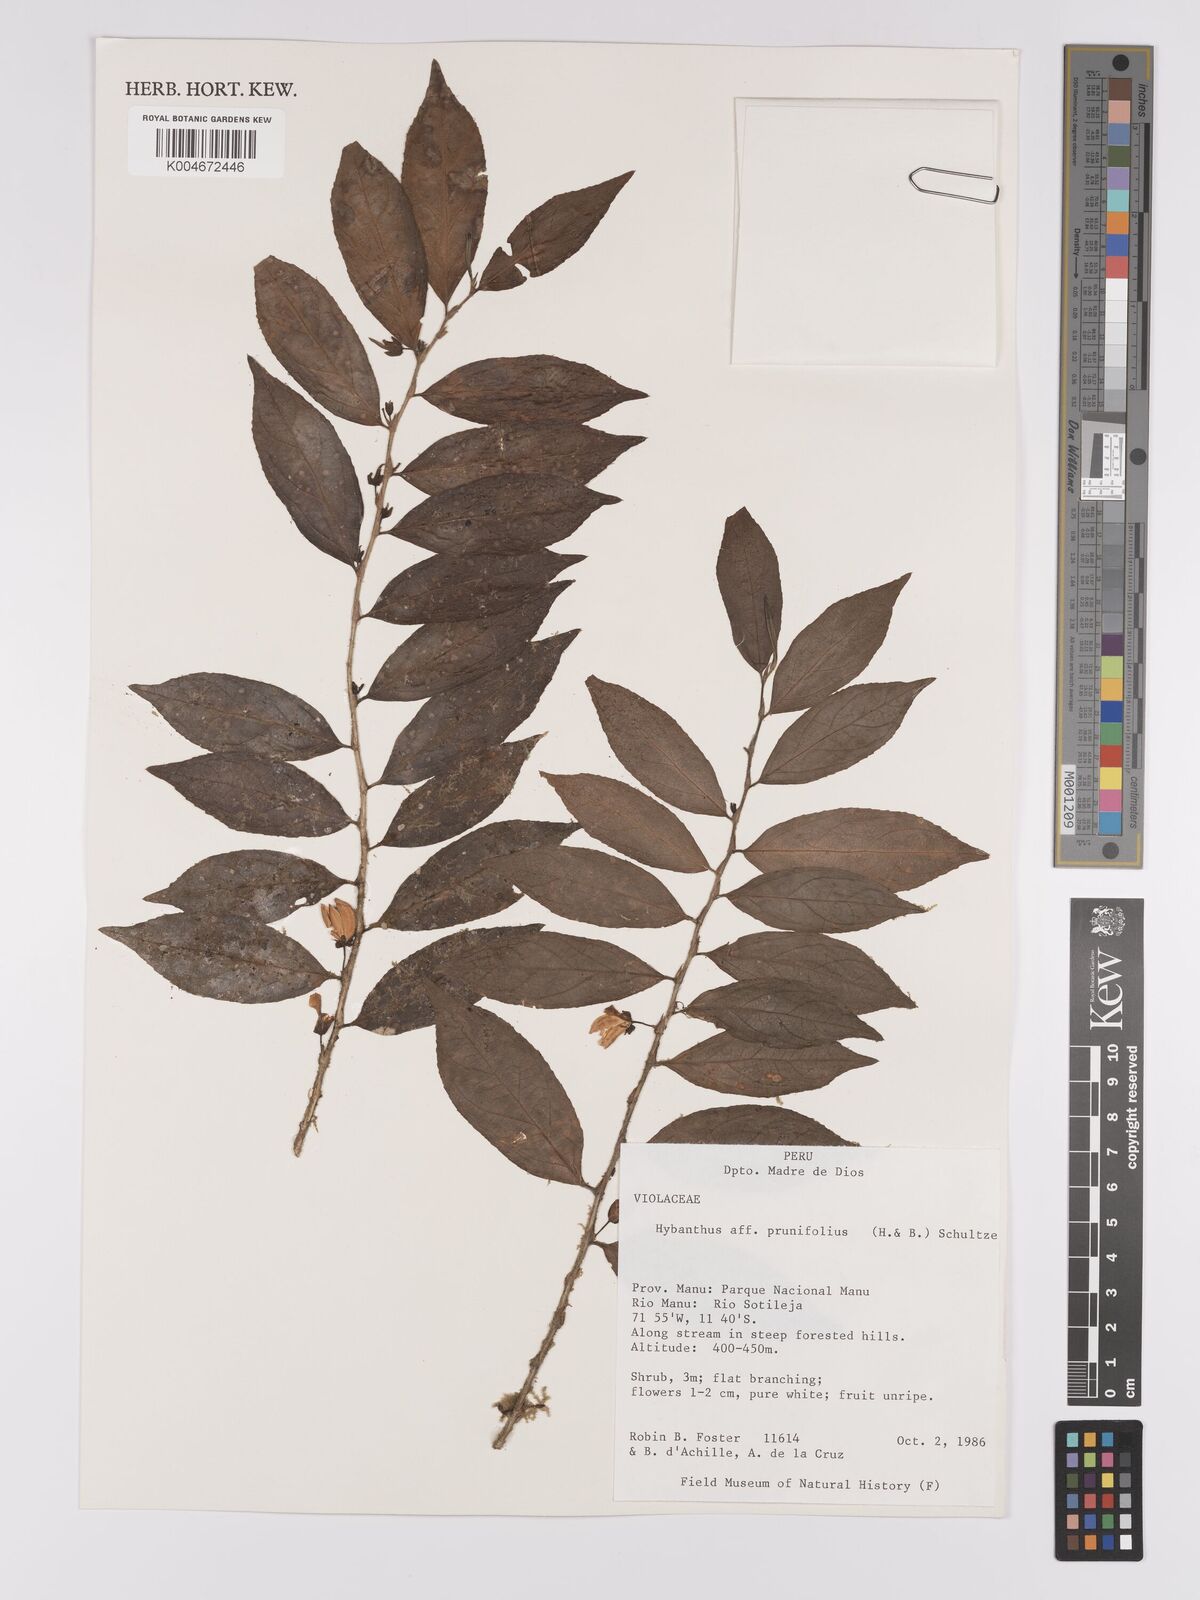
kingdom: Plantae
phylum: Tracheophyta
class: Magnoliopsida
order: Malpighiales
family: Violaceae
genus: Pombalia
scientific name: Pombalia prunifolia
